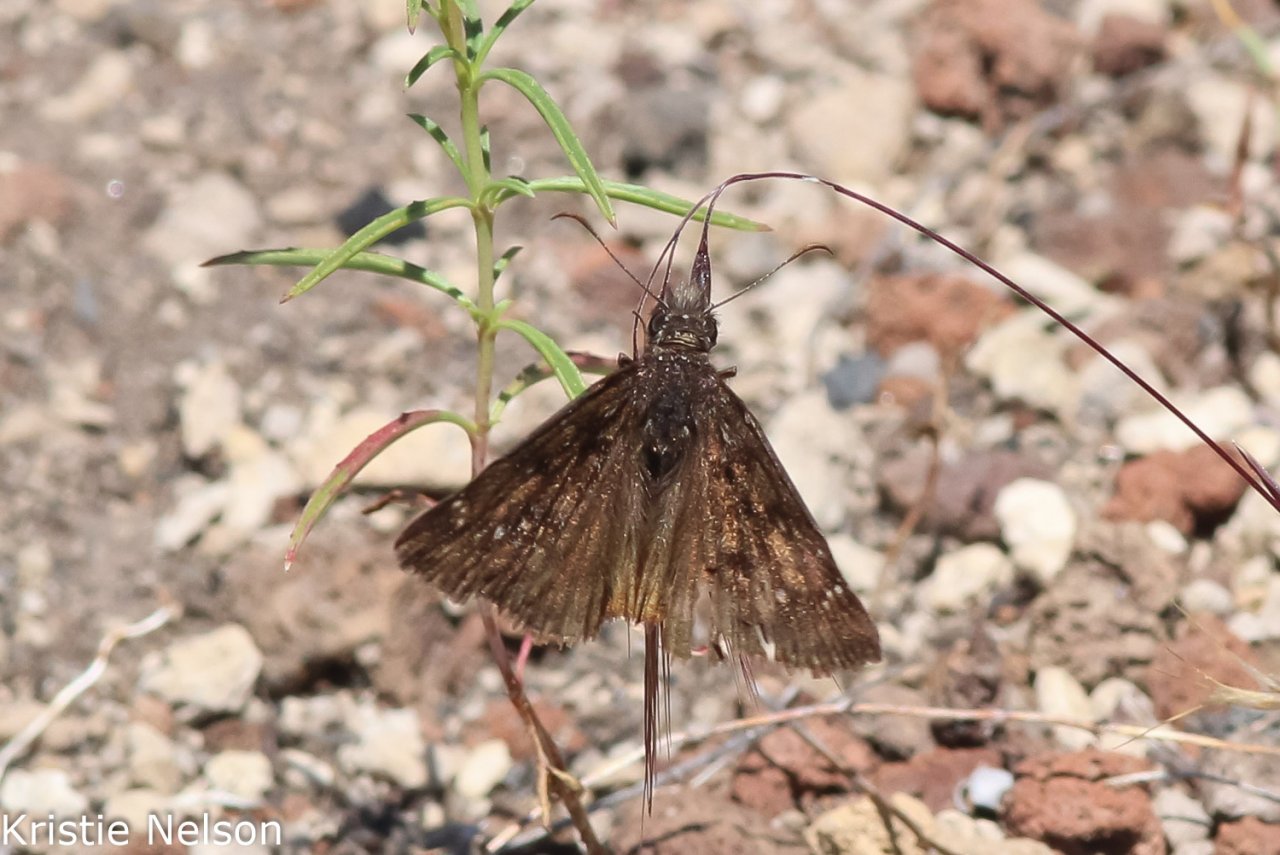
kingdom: Animalia
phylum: Arthropoda
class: Insecta
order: Lepidoptera
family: Hesperiidae
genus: Erynnis
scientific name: Erynnis pacuvius
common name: Pacuvius Duskywing
